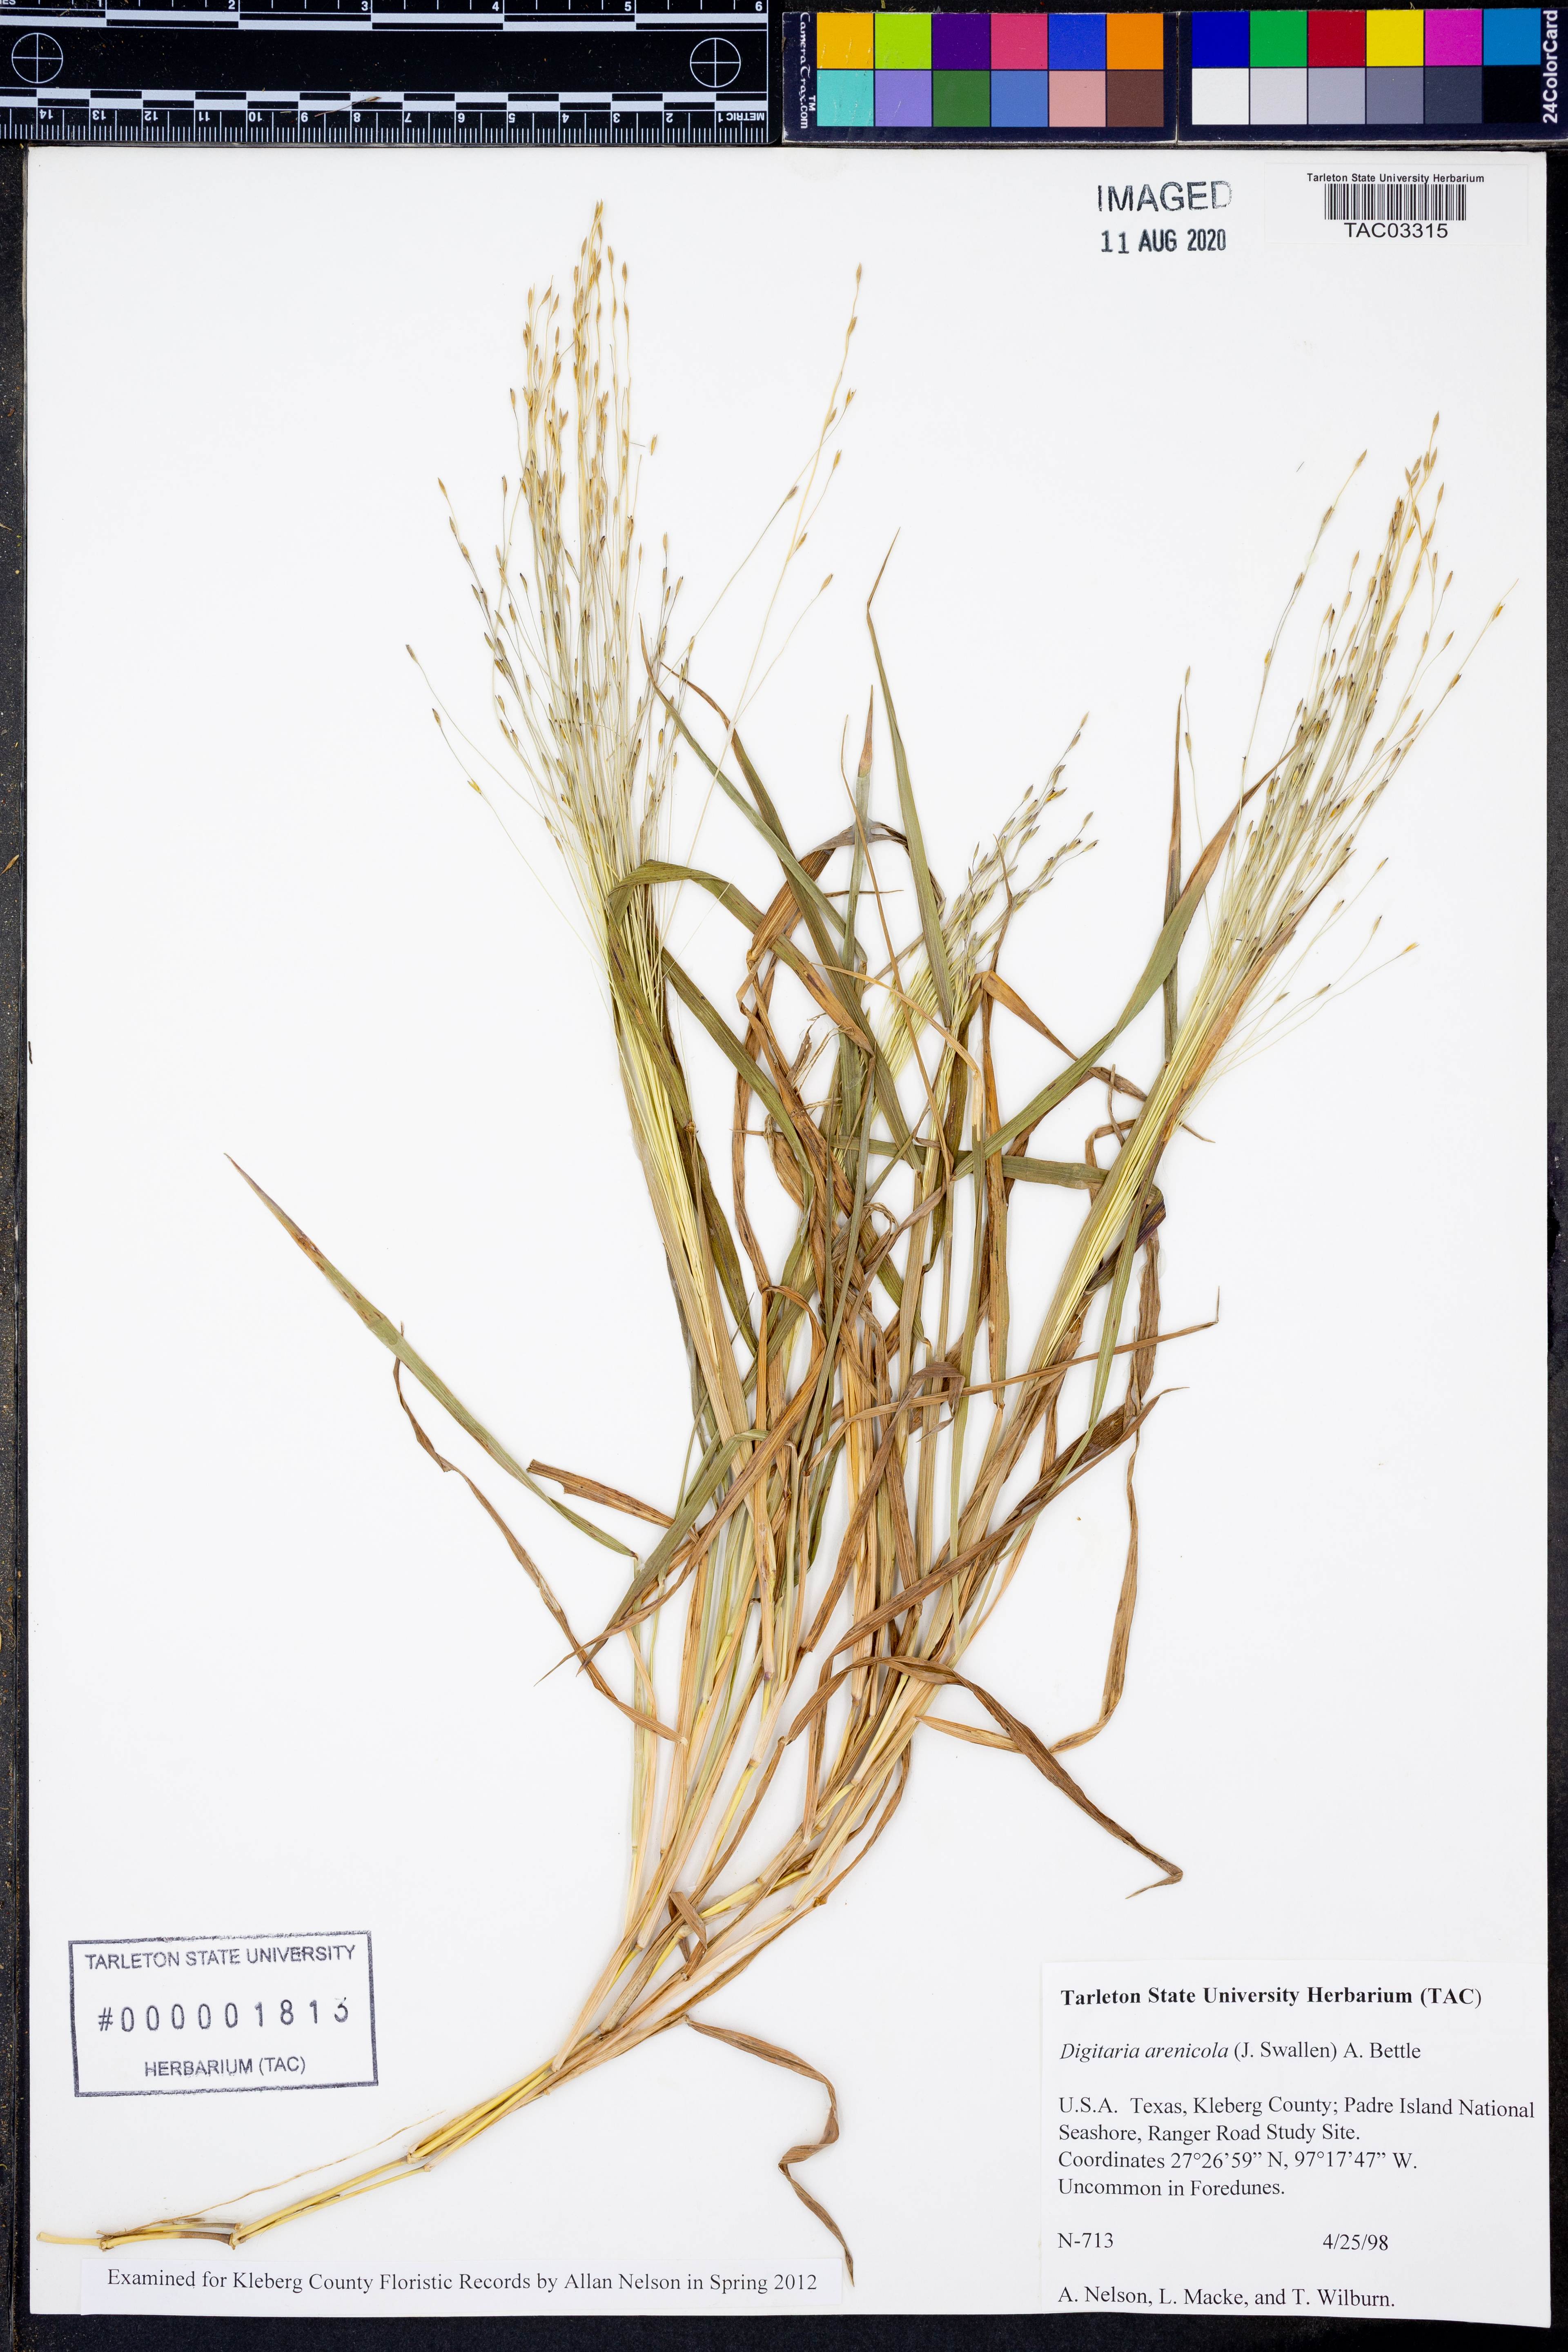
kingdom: Plantae
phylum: Tracheophyta
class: Liliopsida
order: Poales
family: Poaceae
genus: Digitaria
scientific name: Digitaria arenicola
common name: Sand witchgrass
